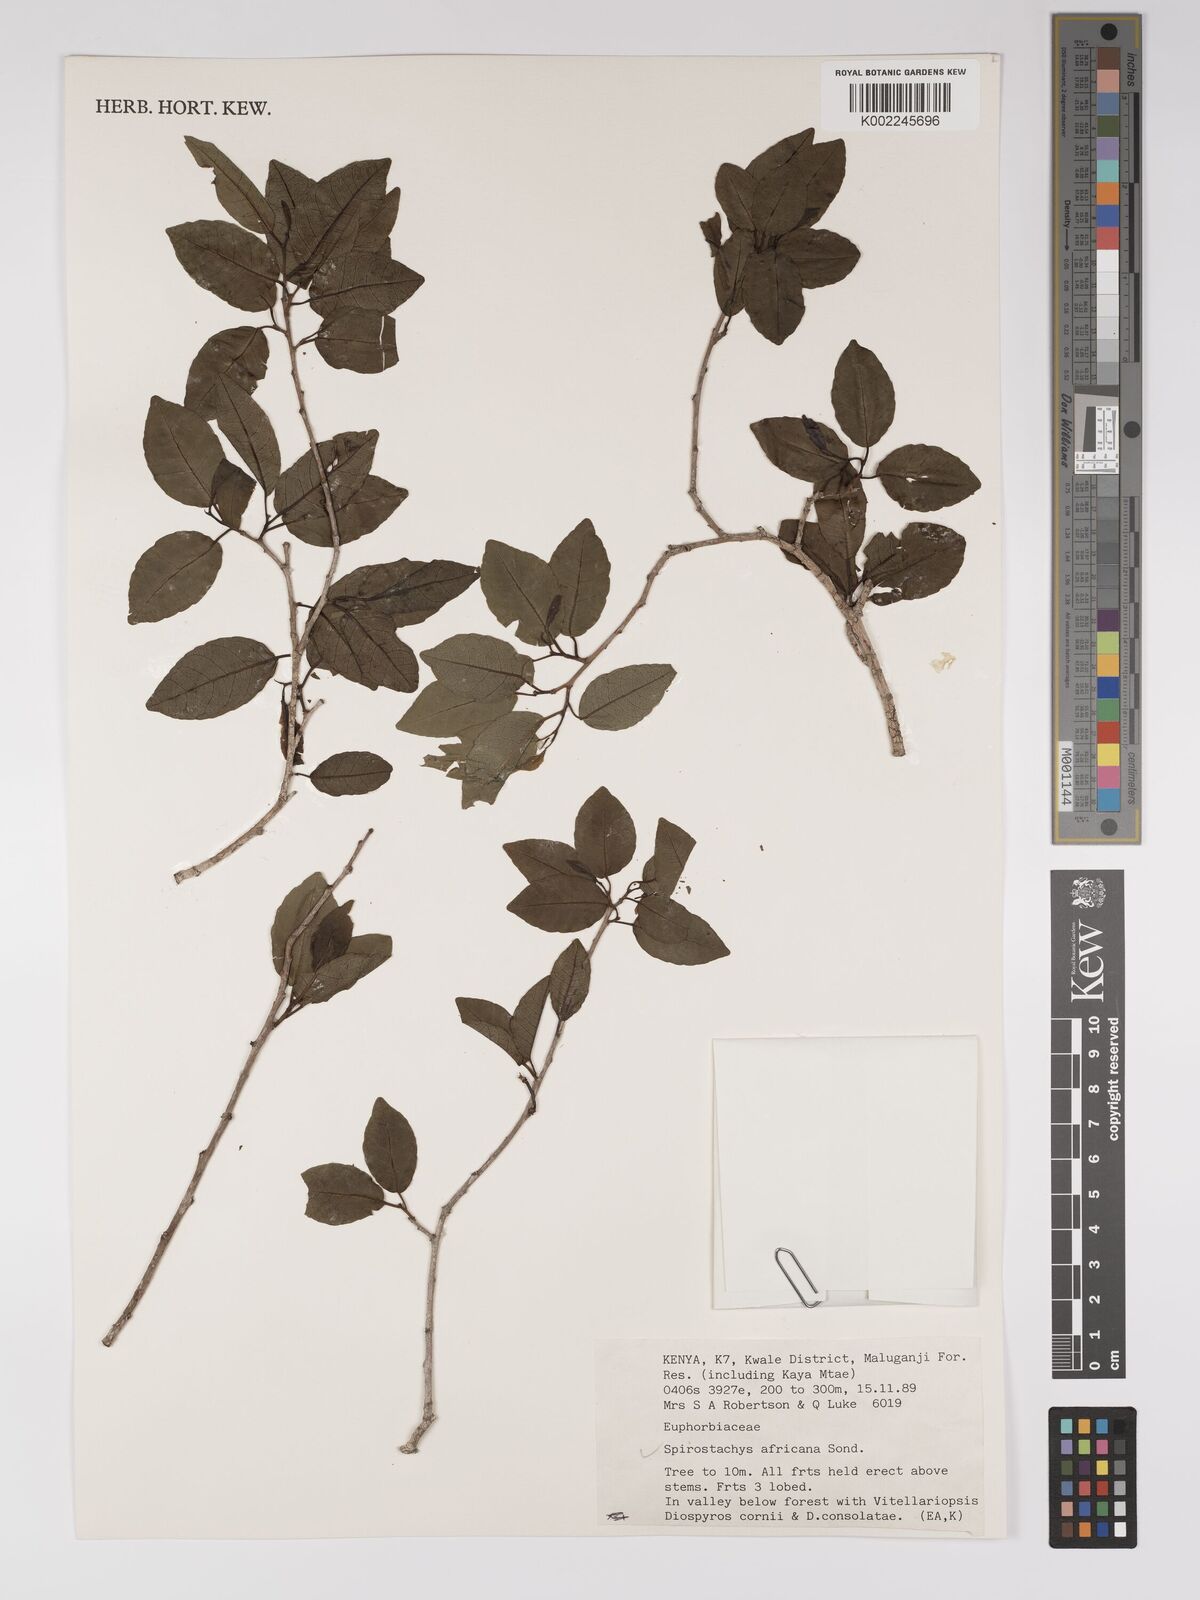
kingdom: Plantae
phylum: Tracheophyta
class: Magnoliopsida
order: Malpighiales
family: Euphorbiaceae
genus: Spirostachys
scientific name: Spirostachys africana
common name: Tamboti
